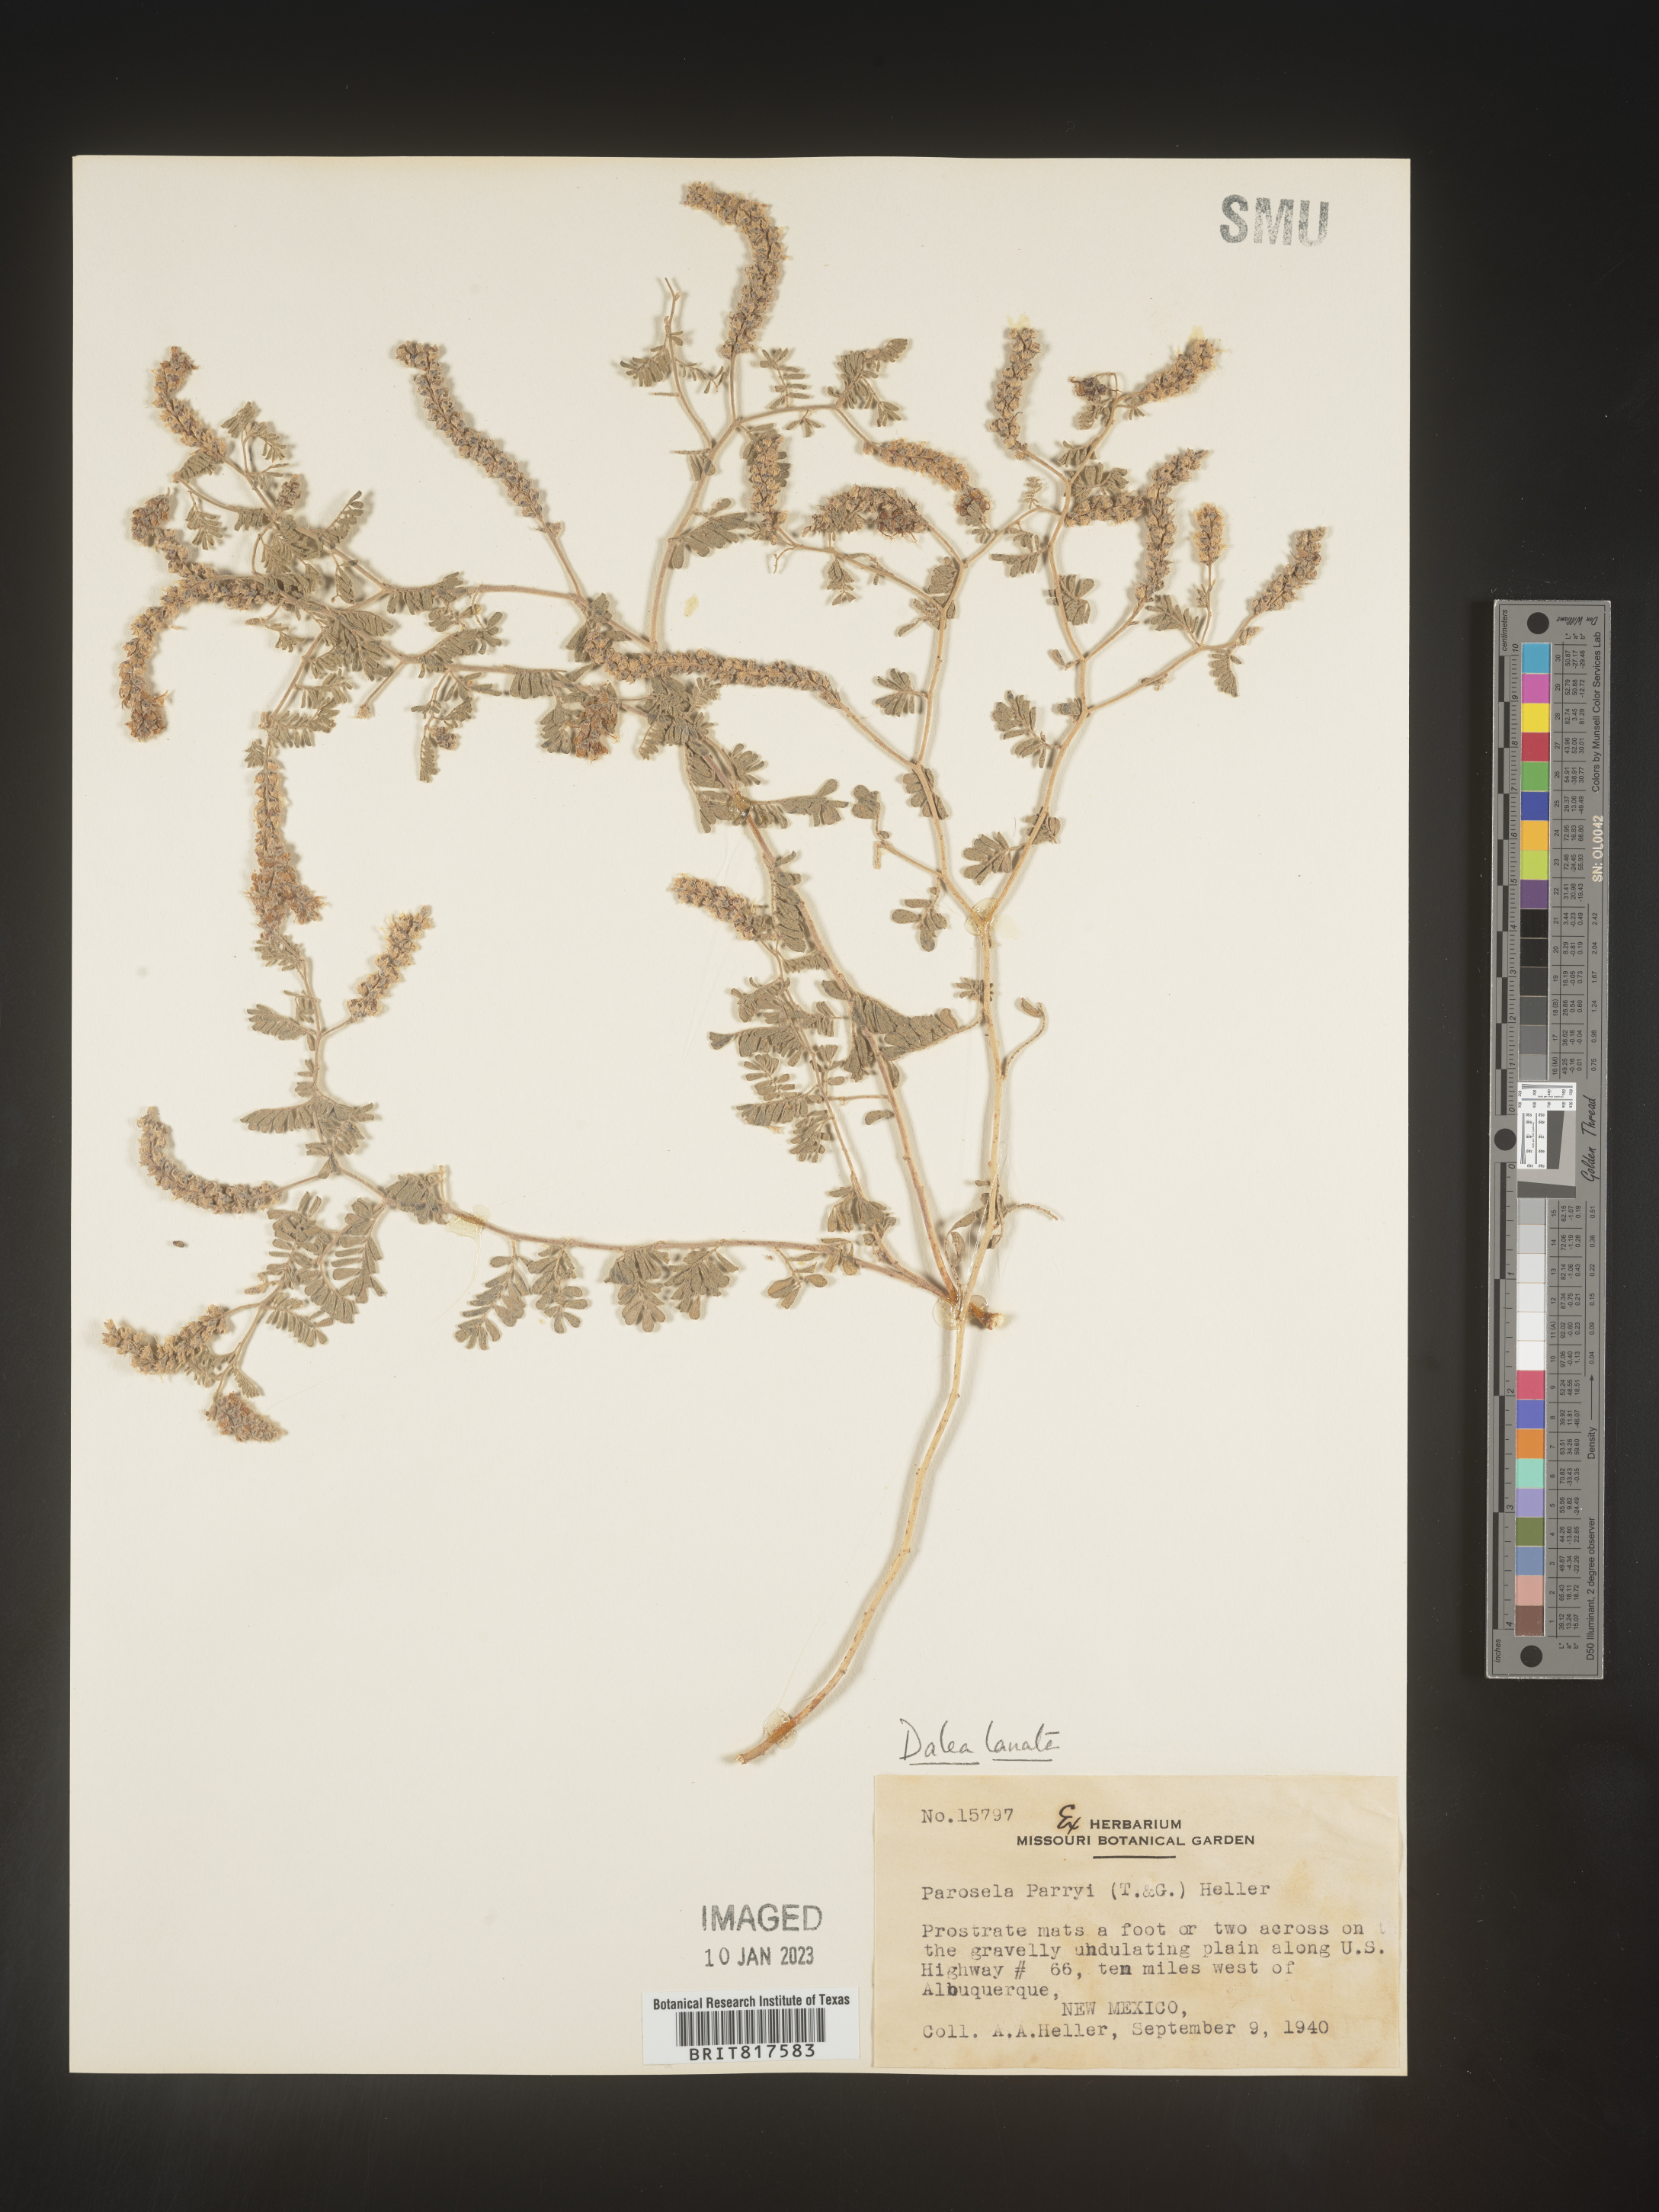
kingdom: Plantae
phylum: Tracheophyta
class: Magnoliopsida
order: Fabales
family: Fabaceae
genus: Dalea
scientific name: Dalea lanata
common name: Woolly dalea
